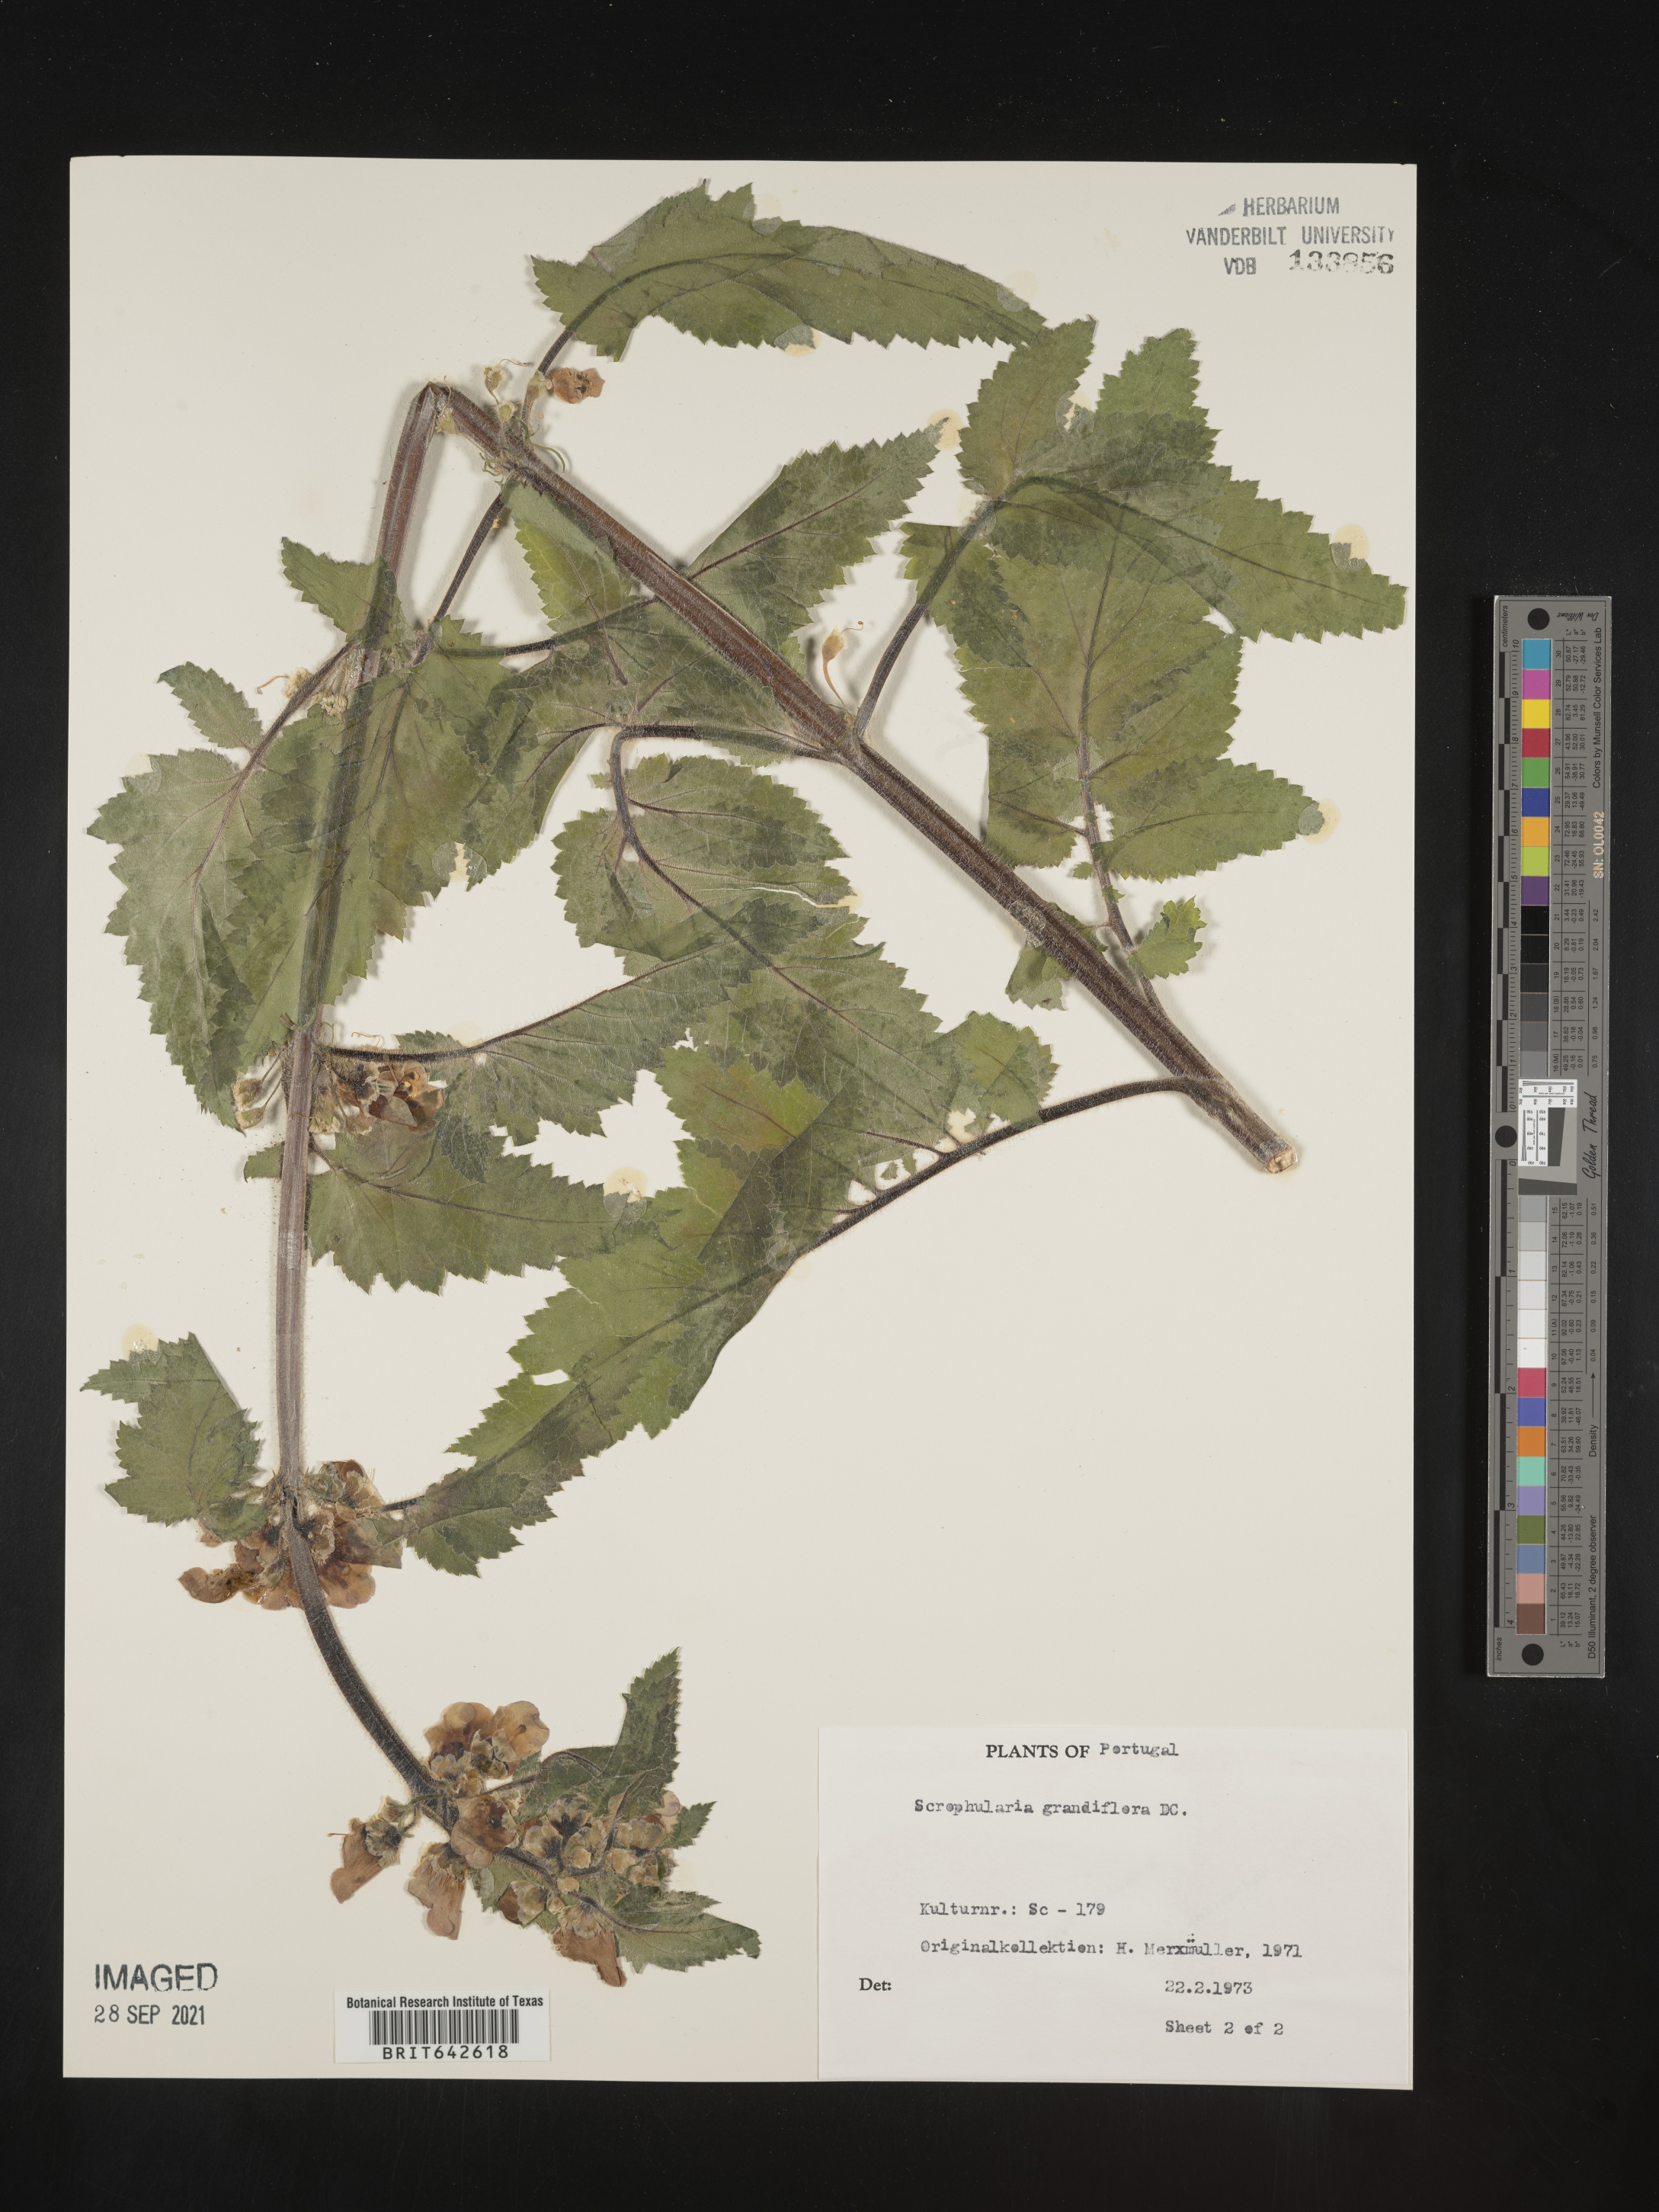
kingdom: Plantae
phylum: Tracheophyta
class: Magnoliopsida
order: Lamiales
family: Scrophulariaceae
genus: Scrophularia
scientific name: Scrophularia
